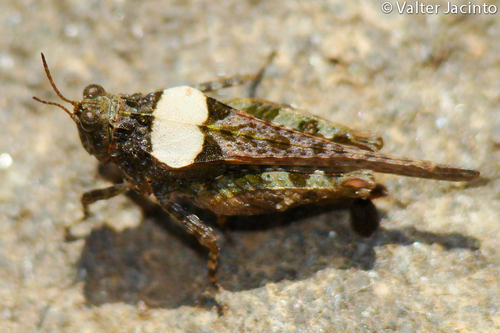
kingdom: Animalia
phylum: Arthropoda
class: Insecta
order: Orthoptera
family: Tetrigidae
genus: Paratettix
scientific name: Paratettix meridionalis
